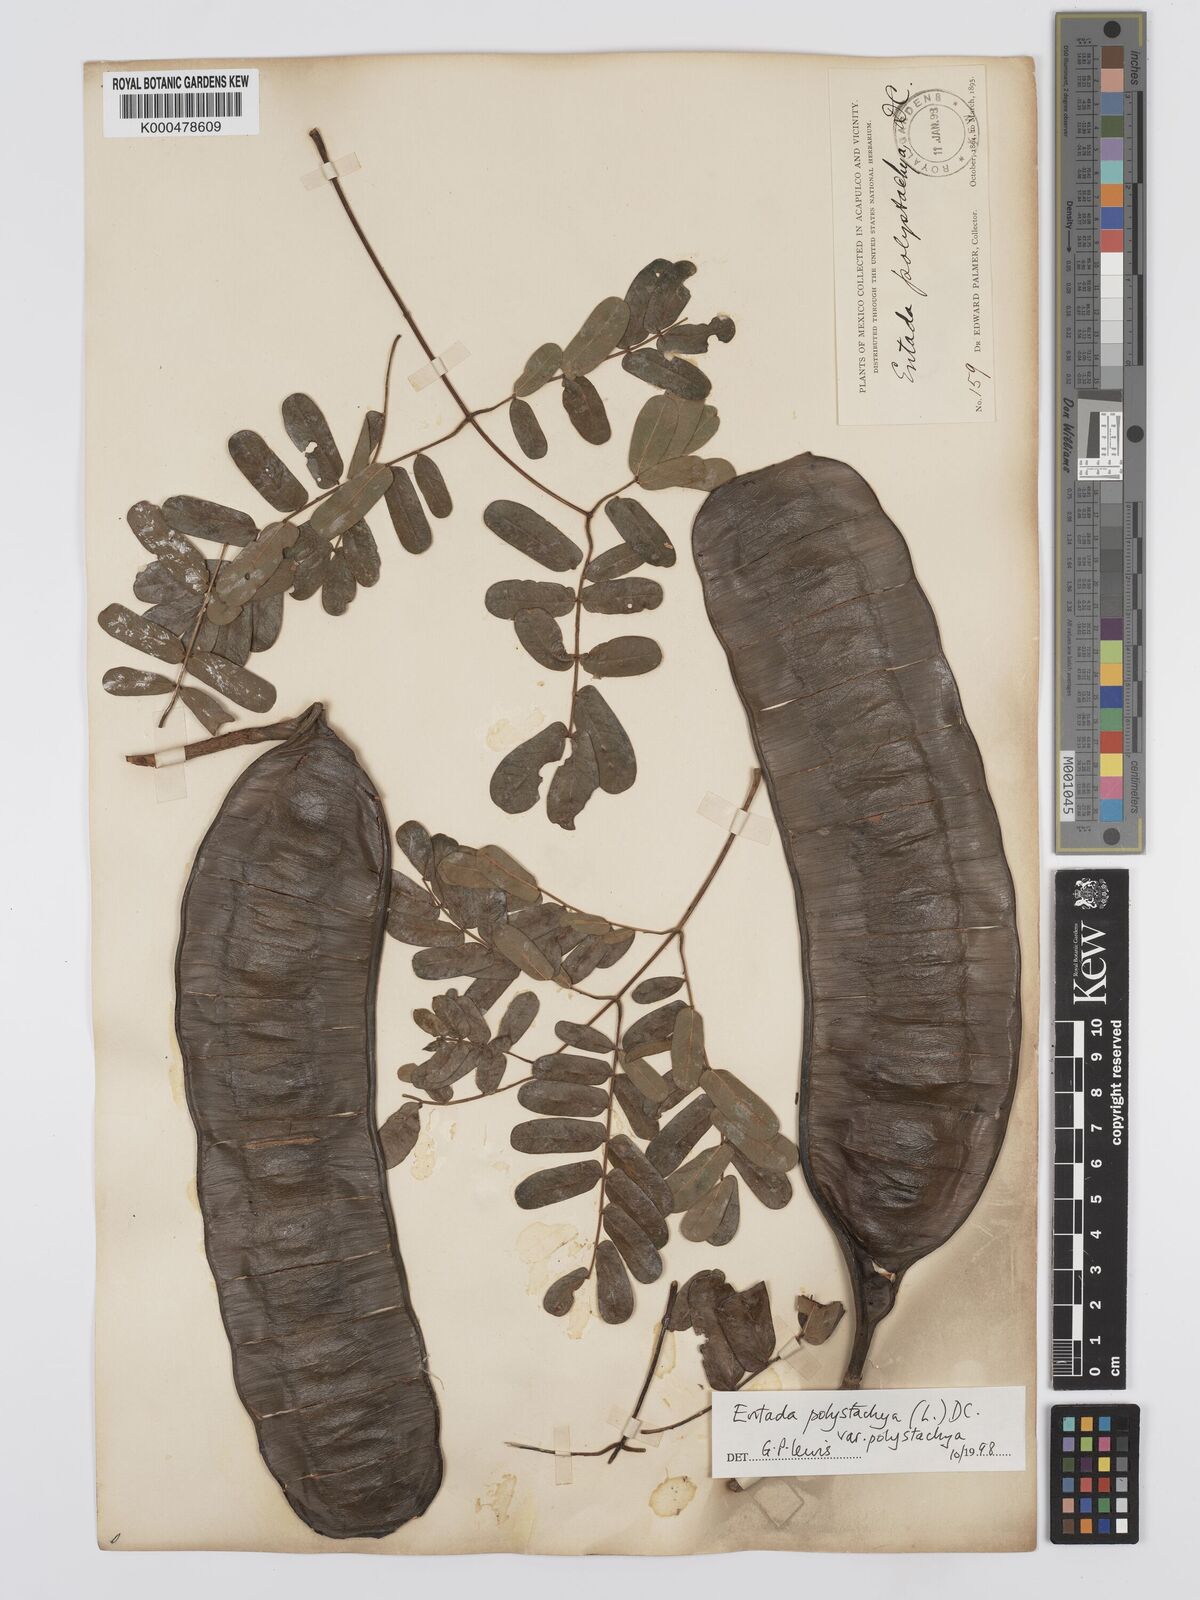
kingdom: Plantae
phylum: Tracheophyta
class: Magnoliopsida
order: Fabales
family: Fabaceae
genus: Entada
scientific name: Entada polystachya
